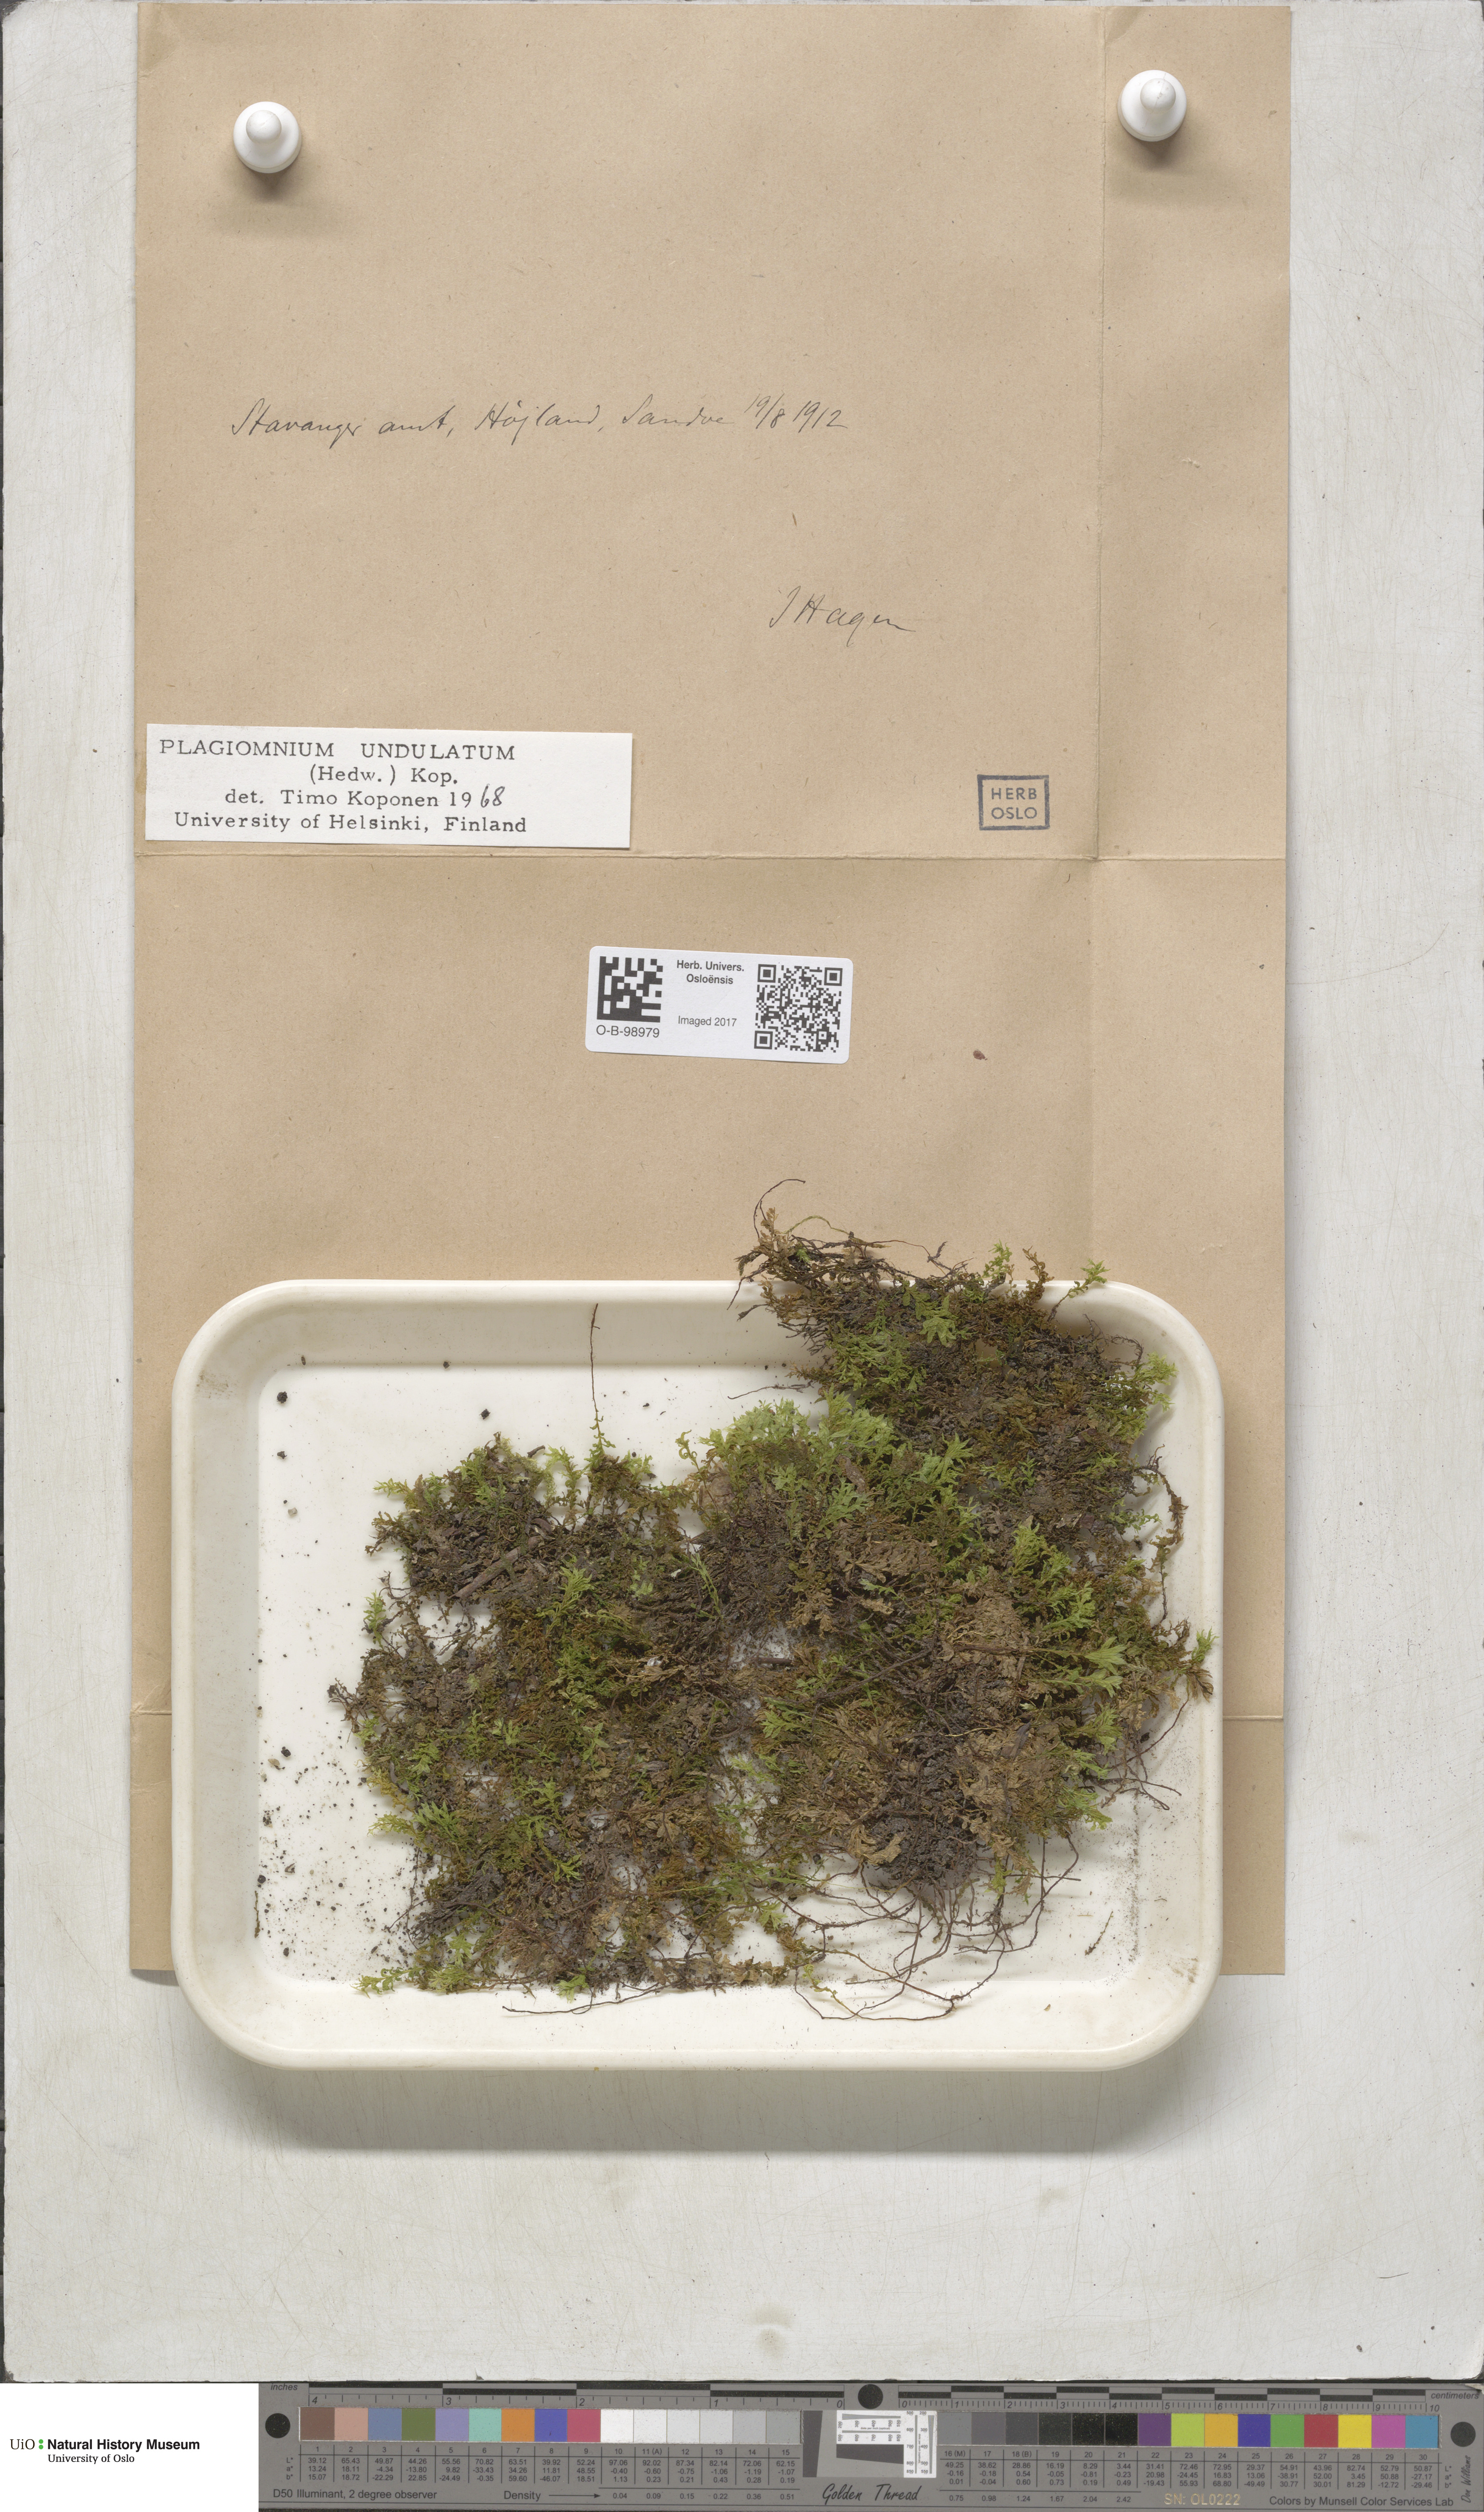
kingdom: Plantae
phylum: Bryophyta
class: Bryopsida
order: Bryales
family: Mniaceae
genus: Plagiomnium
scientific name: Plagiomnium undulatum
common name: Hart's-tongue thyme-moss
